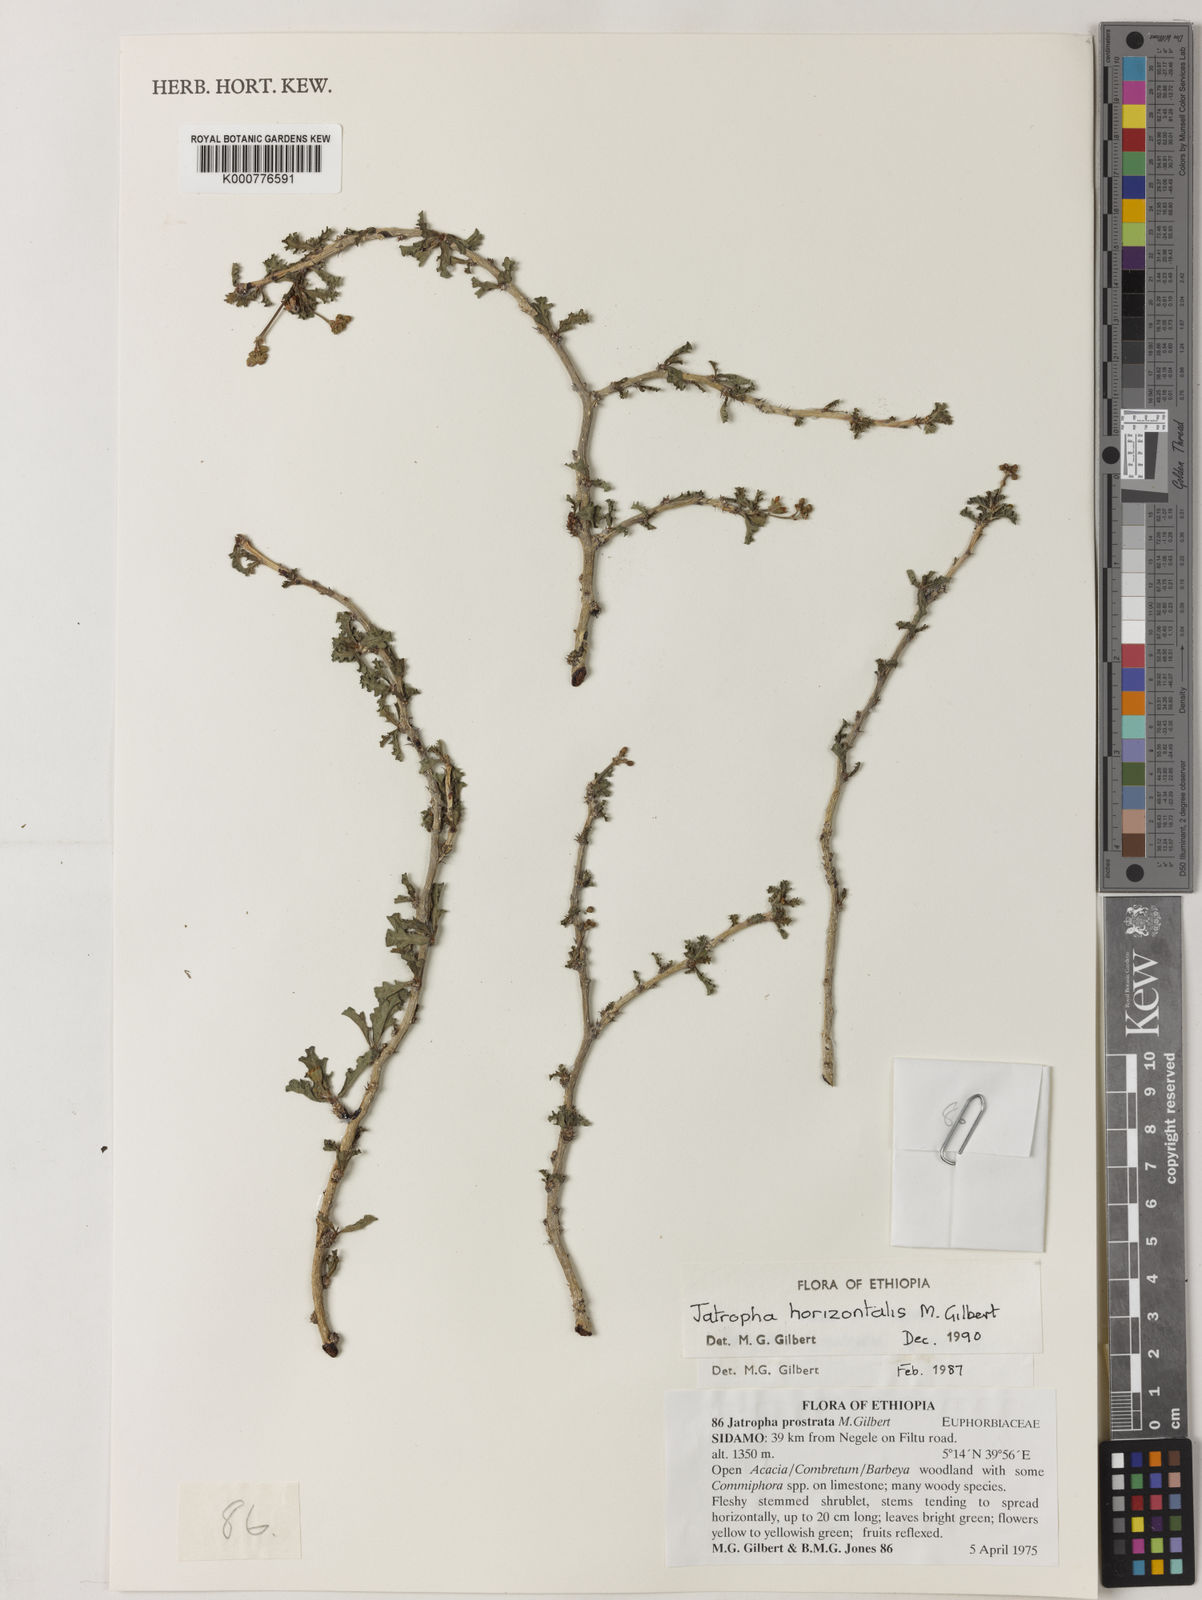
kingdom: Plantae
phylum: Tracheophyta
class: Magnoliopsida
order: Malpighiales
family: Euphorbiaceae
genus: Jatropha
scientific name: Jatropha horizontalis
